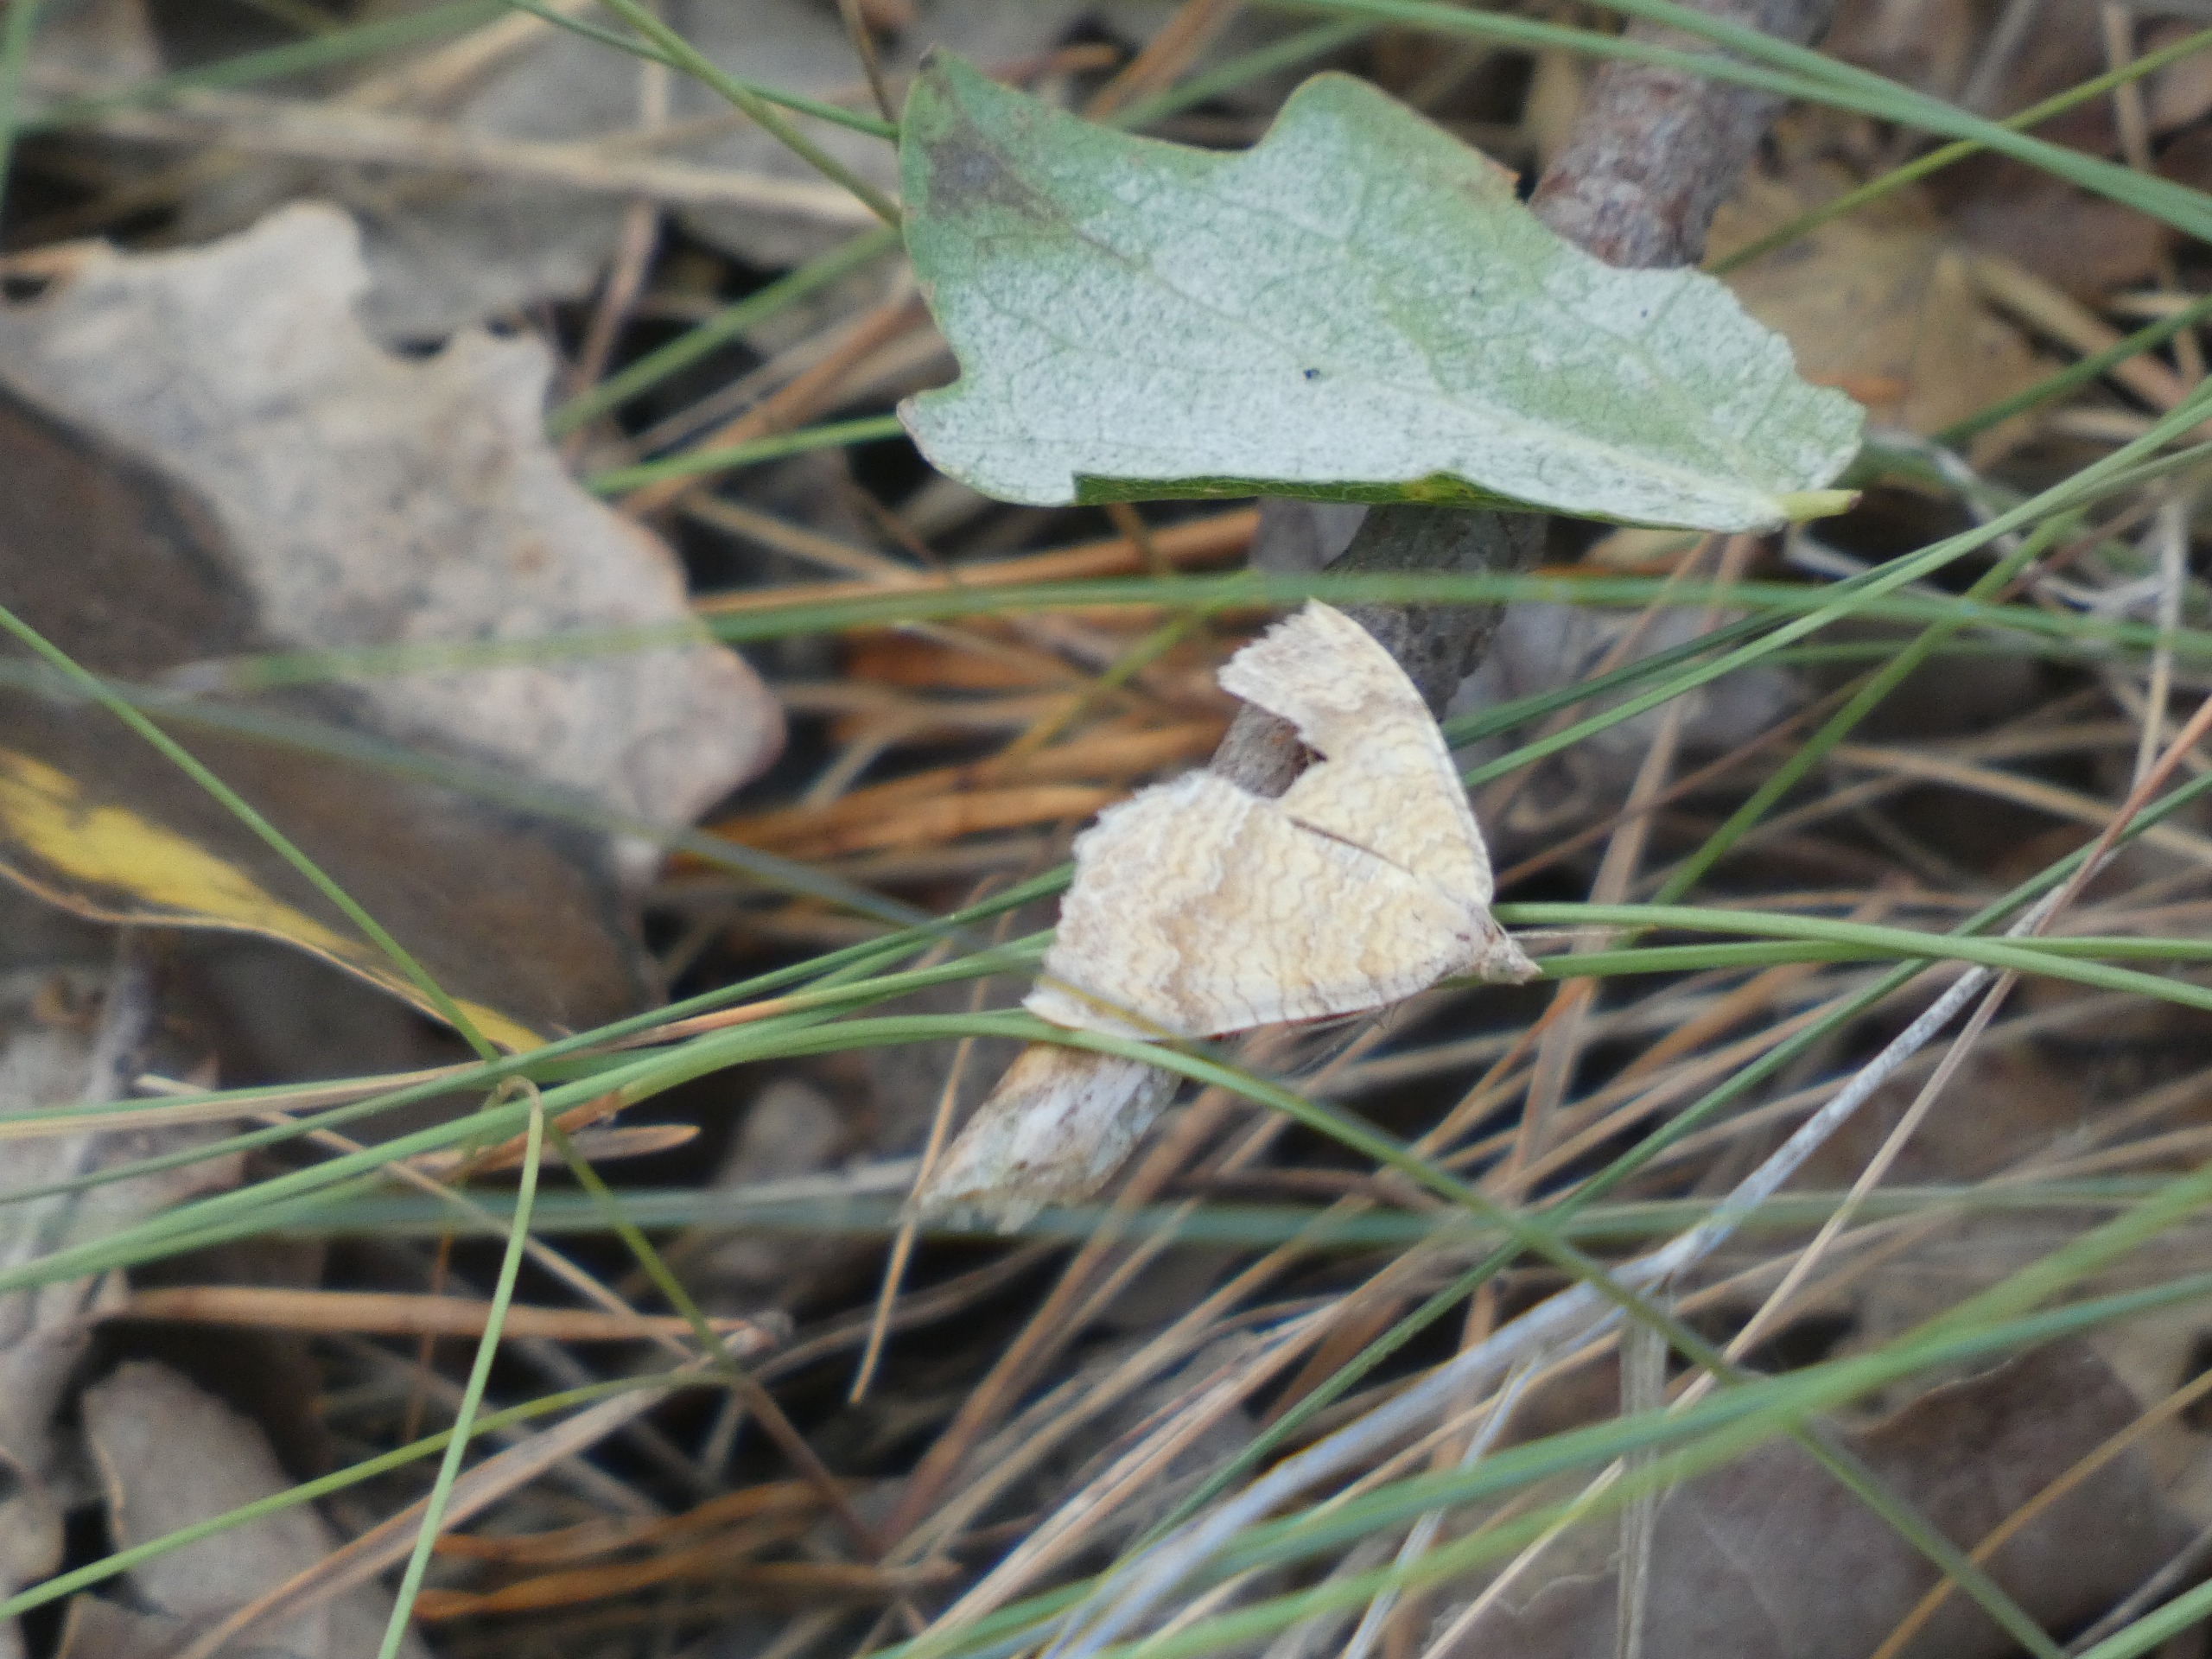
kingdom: Animalia
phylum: Arthropoda
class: Insecta
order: Lepidoptera
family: Geometridae
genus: Camptogramma
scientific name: Camptogramma bilineata
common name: Okkergul bladmåler
